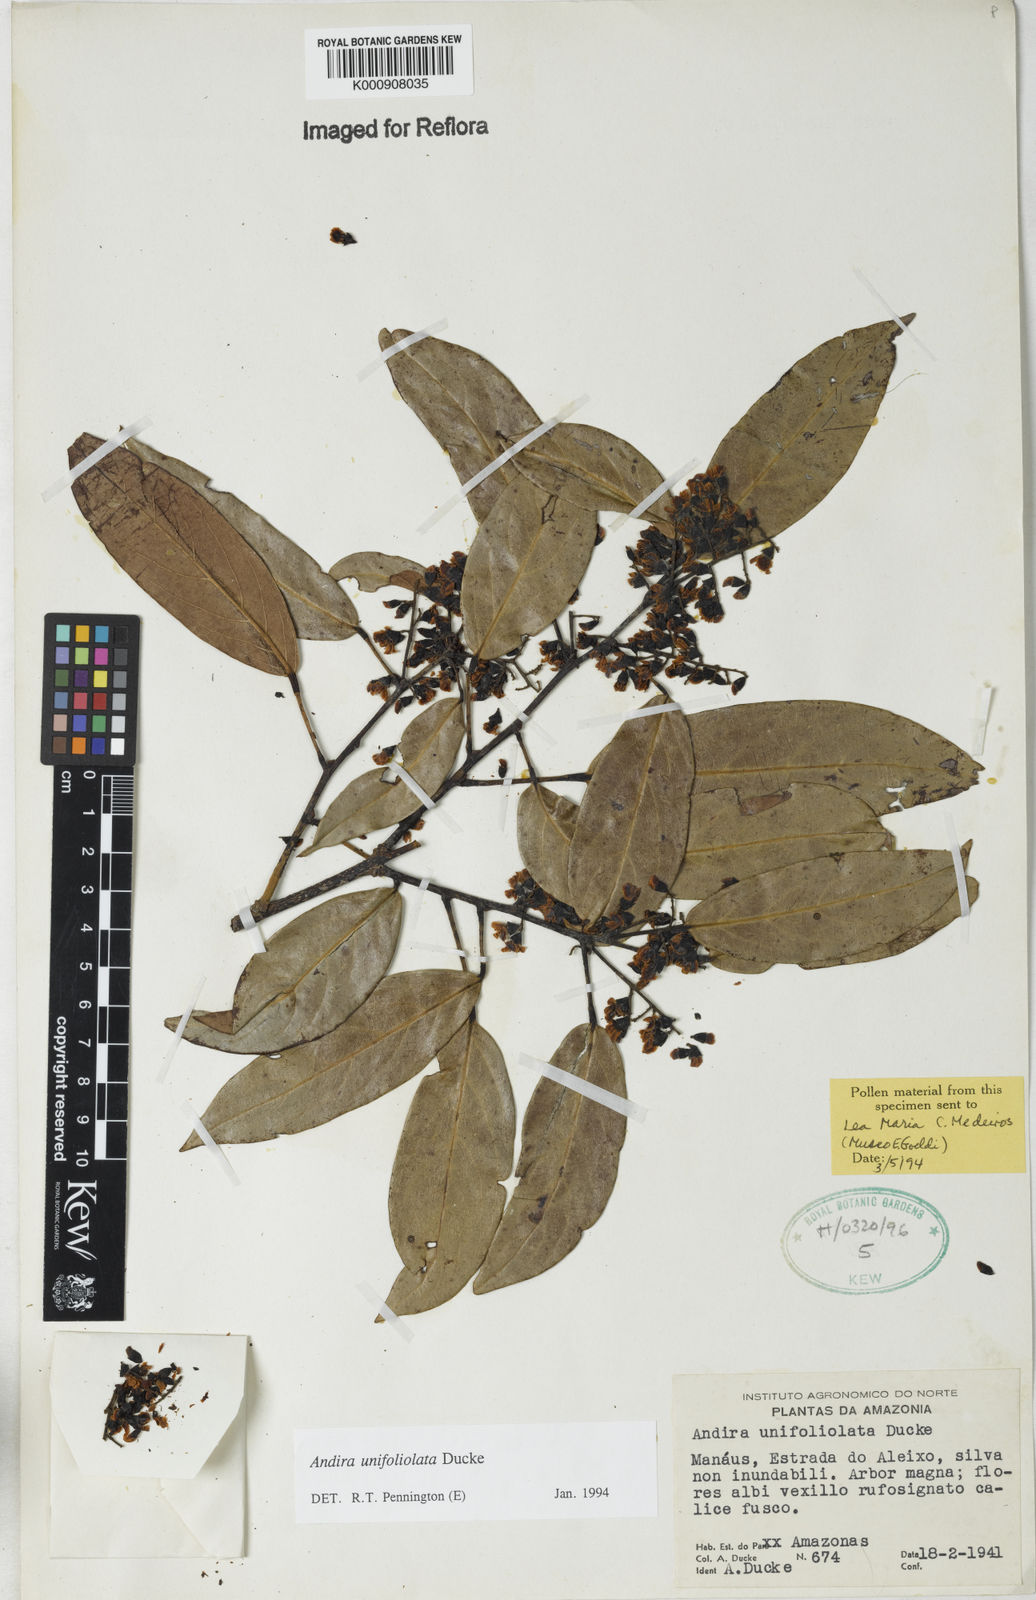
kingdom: Plantae
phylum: Tracheophyta
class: Magnoliopsida
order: Fabales
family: Fabaceae
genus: Andira
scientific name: Andira unifoliolata
